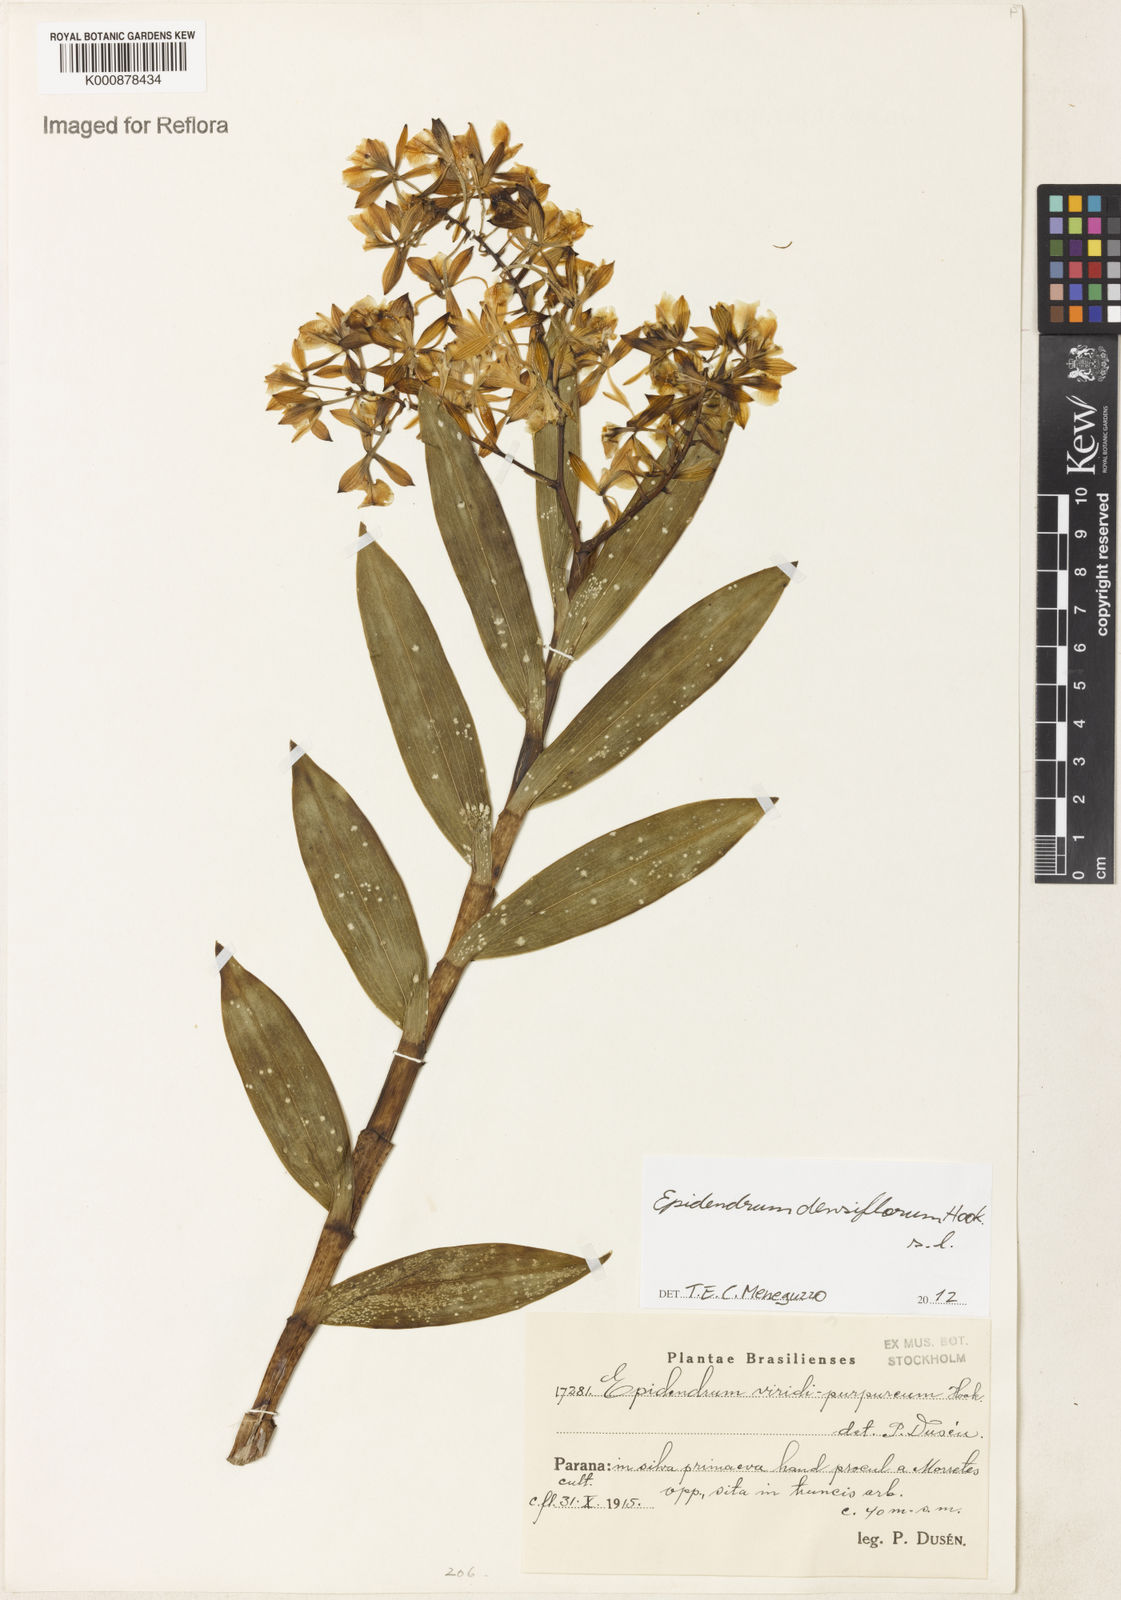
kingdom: Plantae
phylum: Tracheophyta
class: Liliopsida
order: Asparagales
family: Orchidaceae
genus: Epidendrum
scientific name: Epidendrum densiflorum
